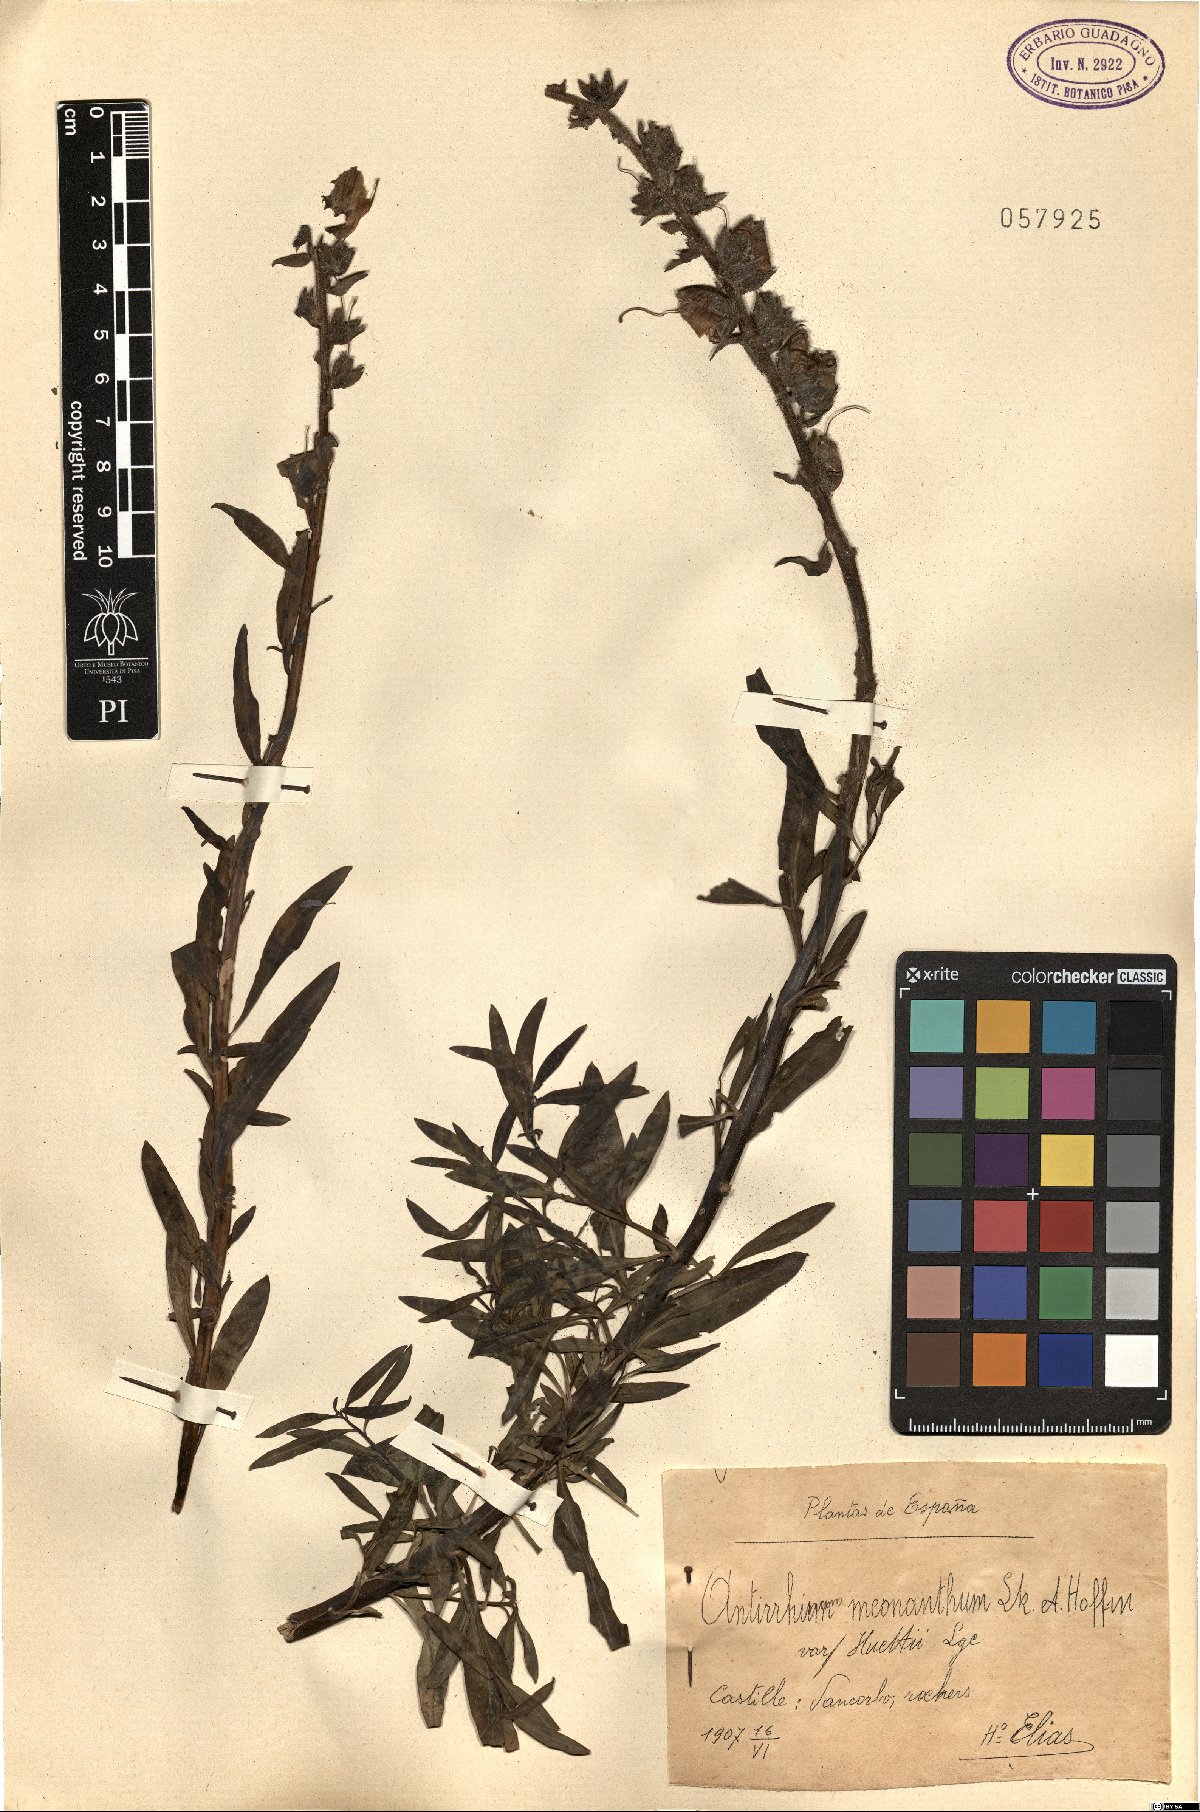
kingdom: Plantae
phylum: Tracheophyta
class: Magnoliopsida
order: Lamiales
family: Plantaginaceae
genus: Antirrhinum
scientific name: Antirrhinum braun-blanquetii
